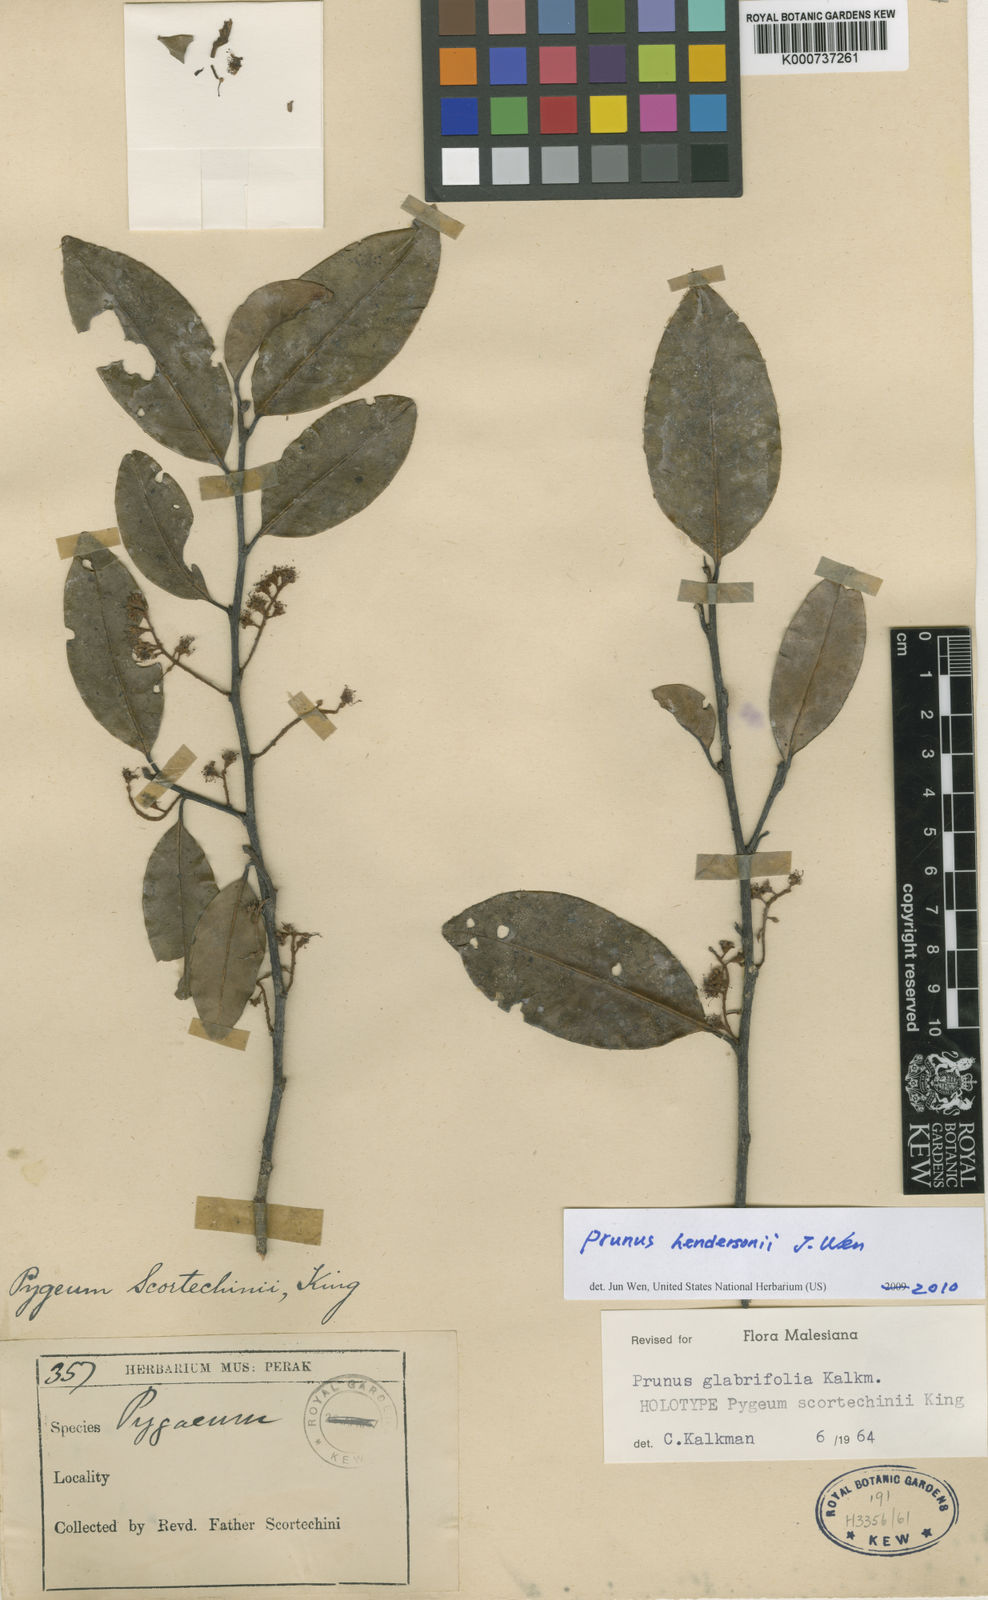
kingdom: Plantae
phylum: Tracheophyta
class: Magnoliopsida
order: Rosales
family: Rosaceae
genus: Prunus
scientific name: Prunus
